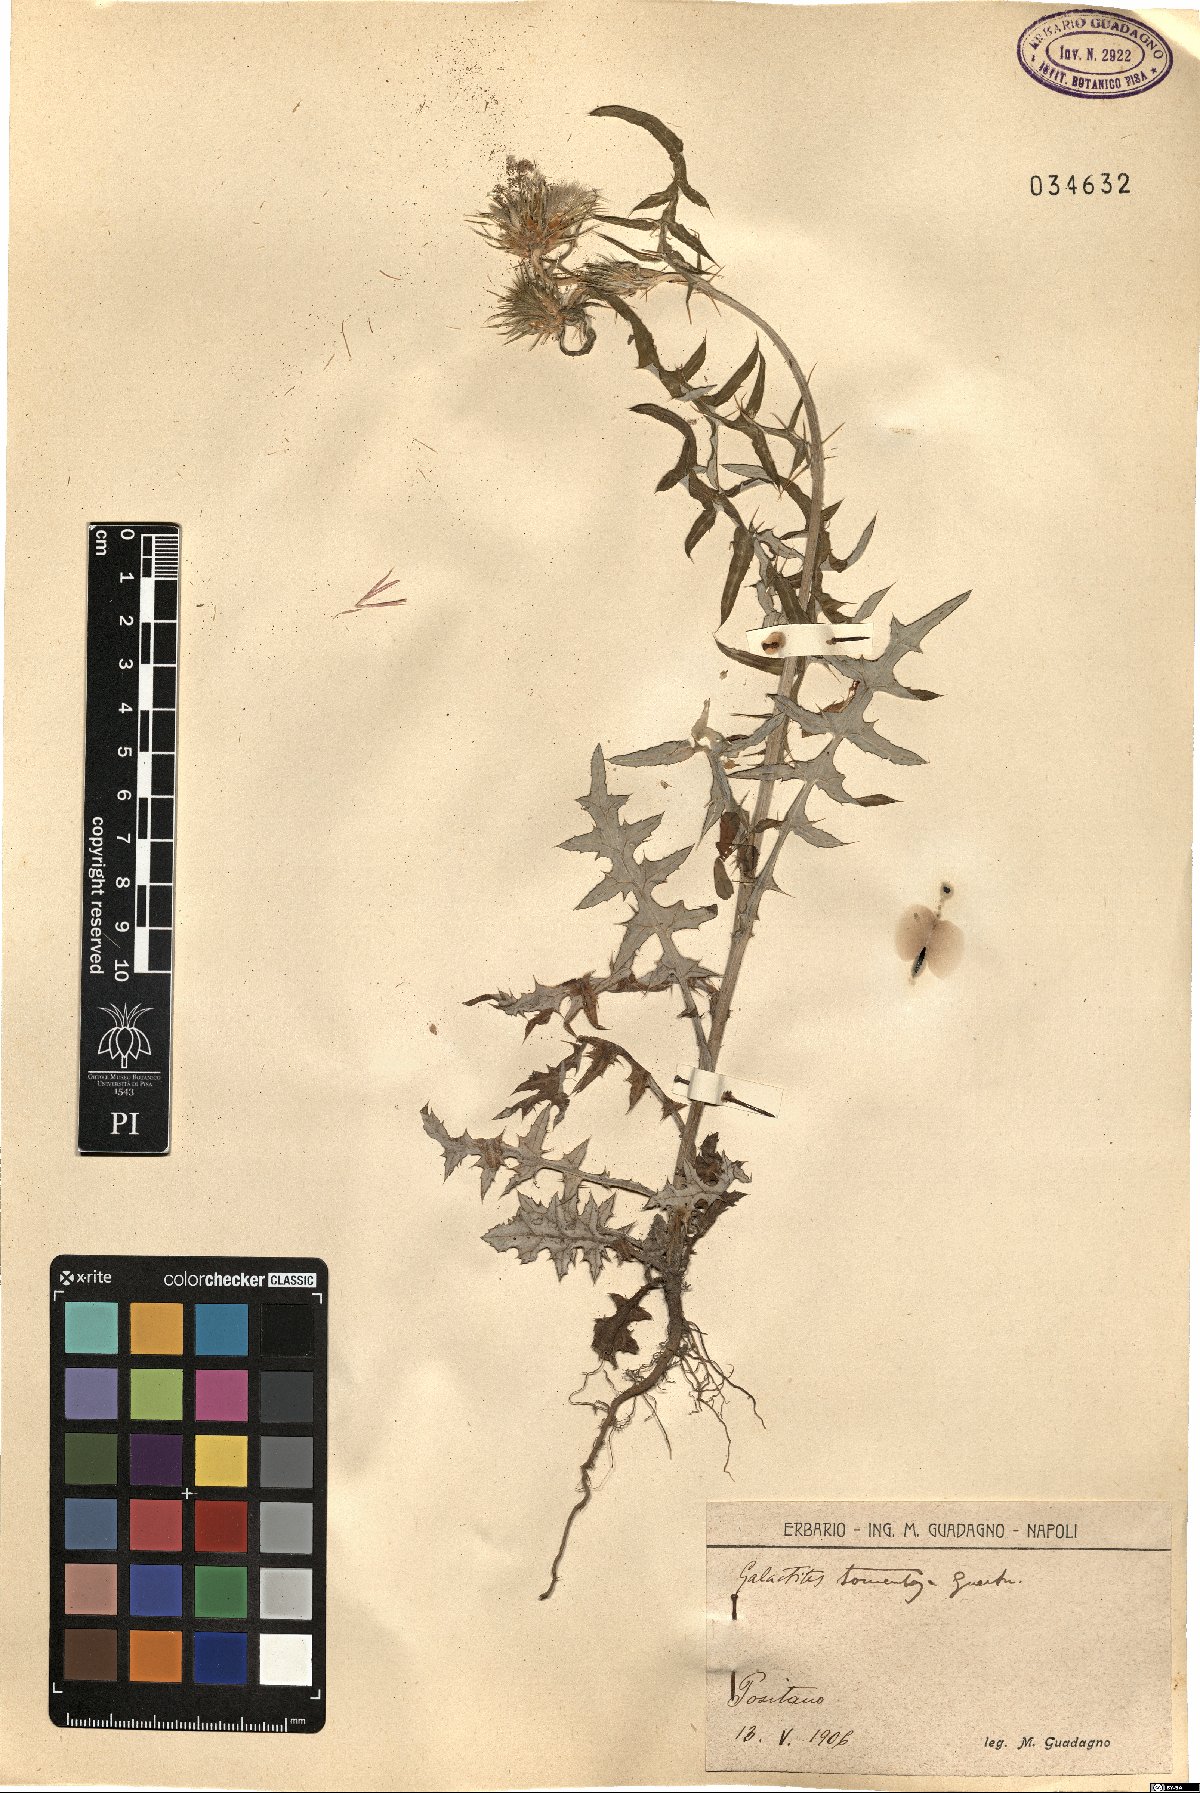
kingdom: Plantae
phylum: Tracheophyta
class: Magnoliopsida
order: Asterales
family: Asteraceae
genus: Galactites
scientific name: Galactites tomentosa
